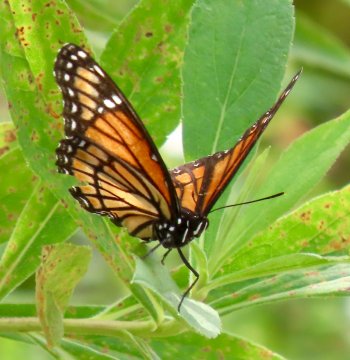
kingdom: Animalia
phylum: Arthropoda
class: Insecta
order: Lepidoptera
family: Nymphalidae
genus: Limenitis
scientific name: Limenitis archippus
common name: Viceroy
